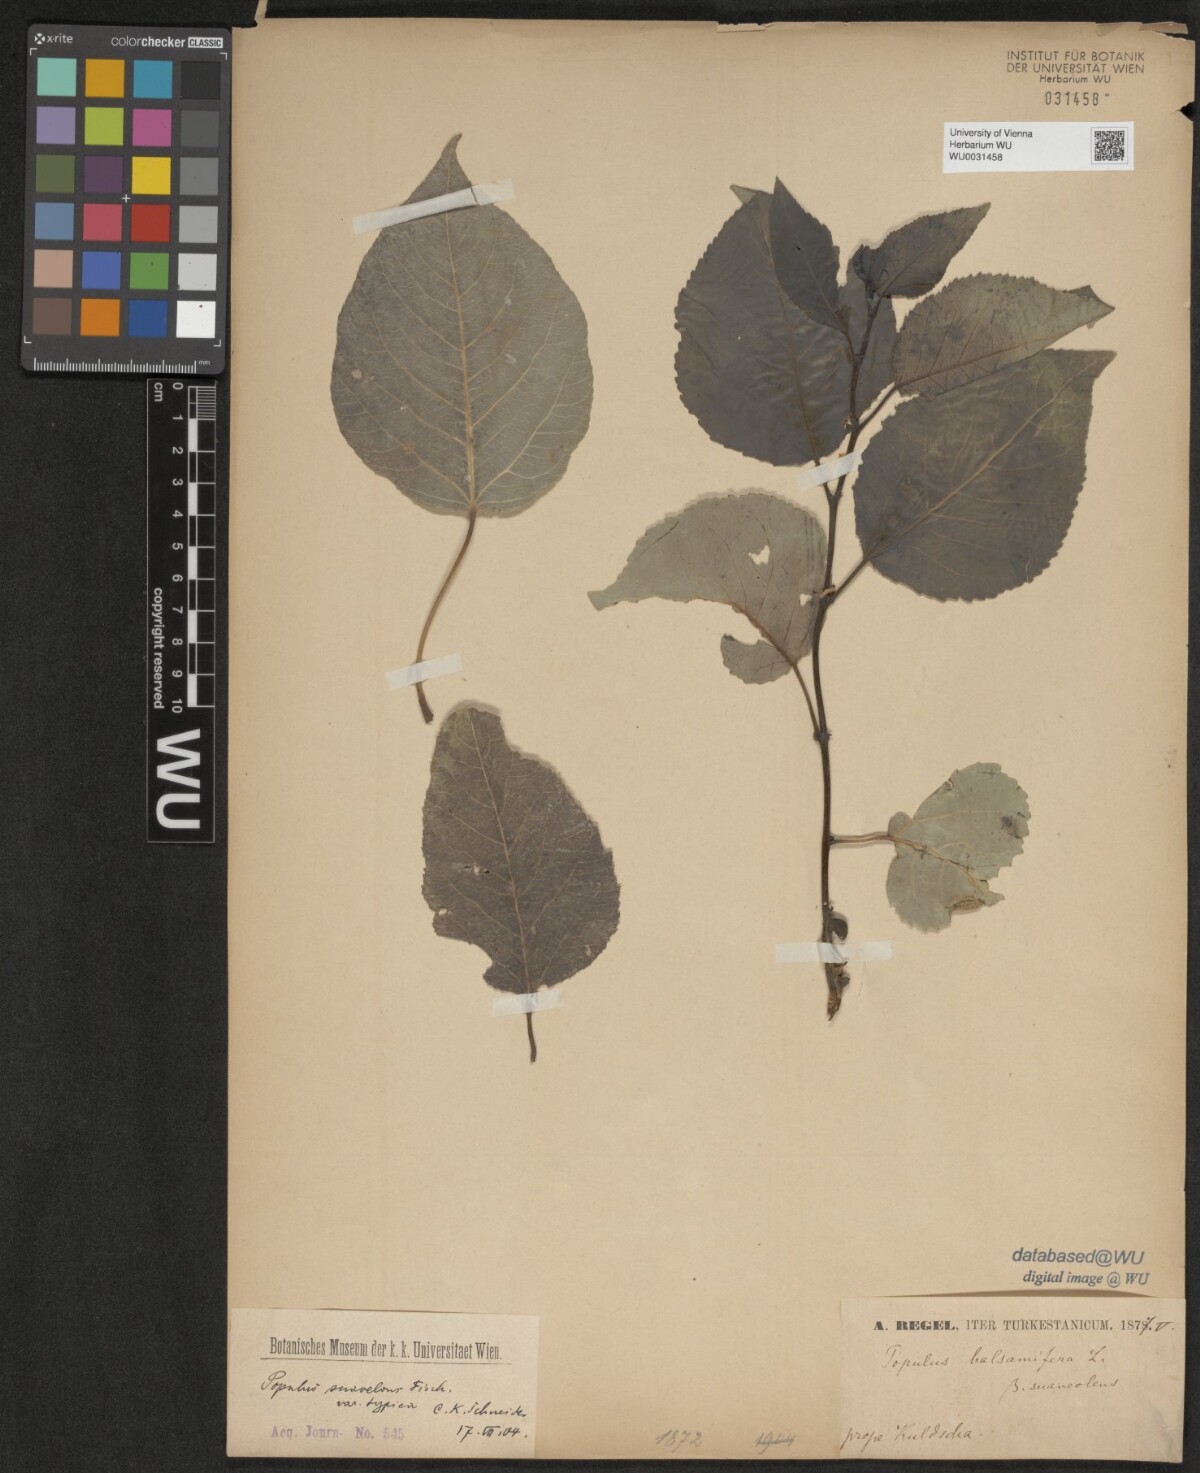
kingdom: Plantae
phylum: Tracheophyta
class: Magnoliopsida
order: Malpighiales
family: Salicaceae
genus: Populus
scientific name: Populus suaveolens
